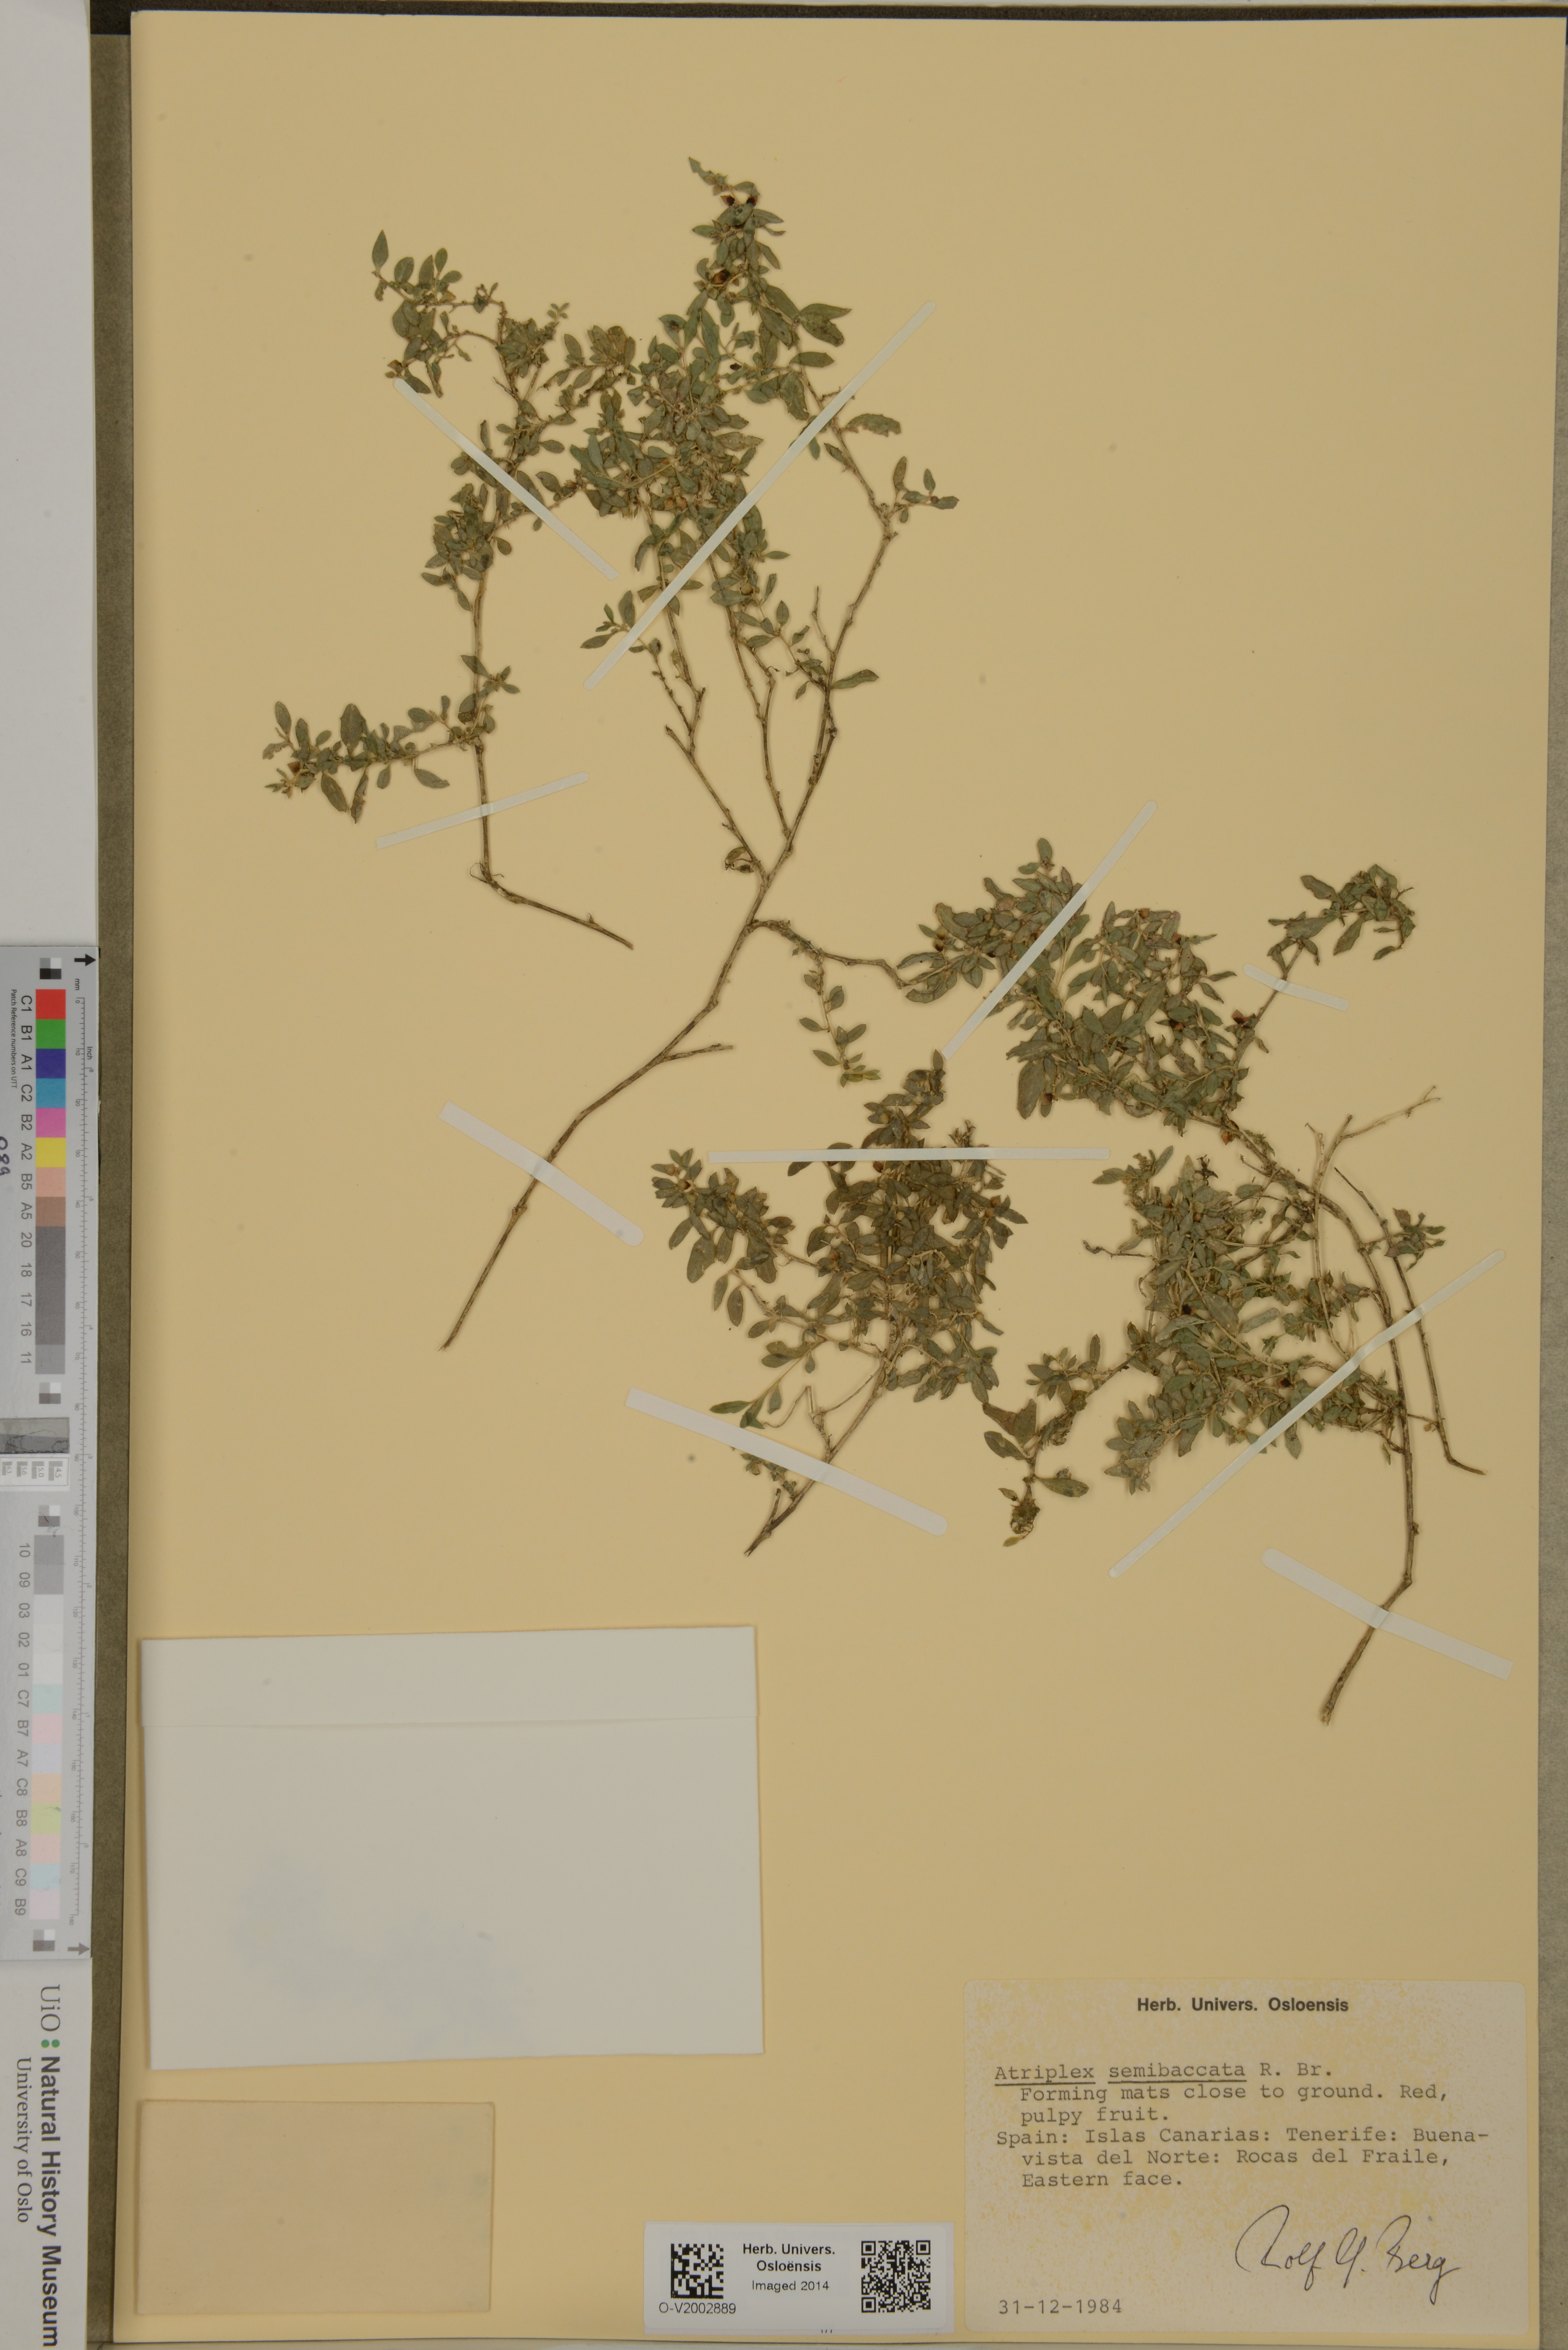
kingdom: Plantae
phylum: Tracheophyta
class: Magnoliopsida
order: Caryophyllales
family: Amaranthaceae
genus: Atriplex
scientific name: Atriplex semibaccata
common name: Australian saltbush
